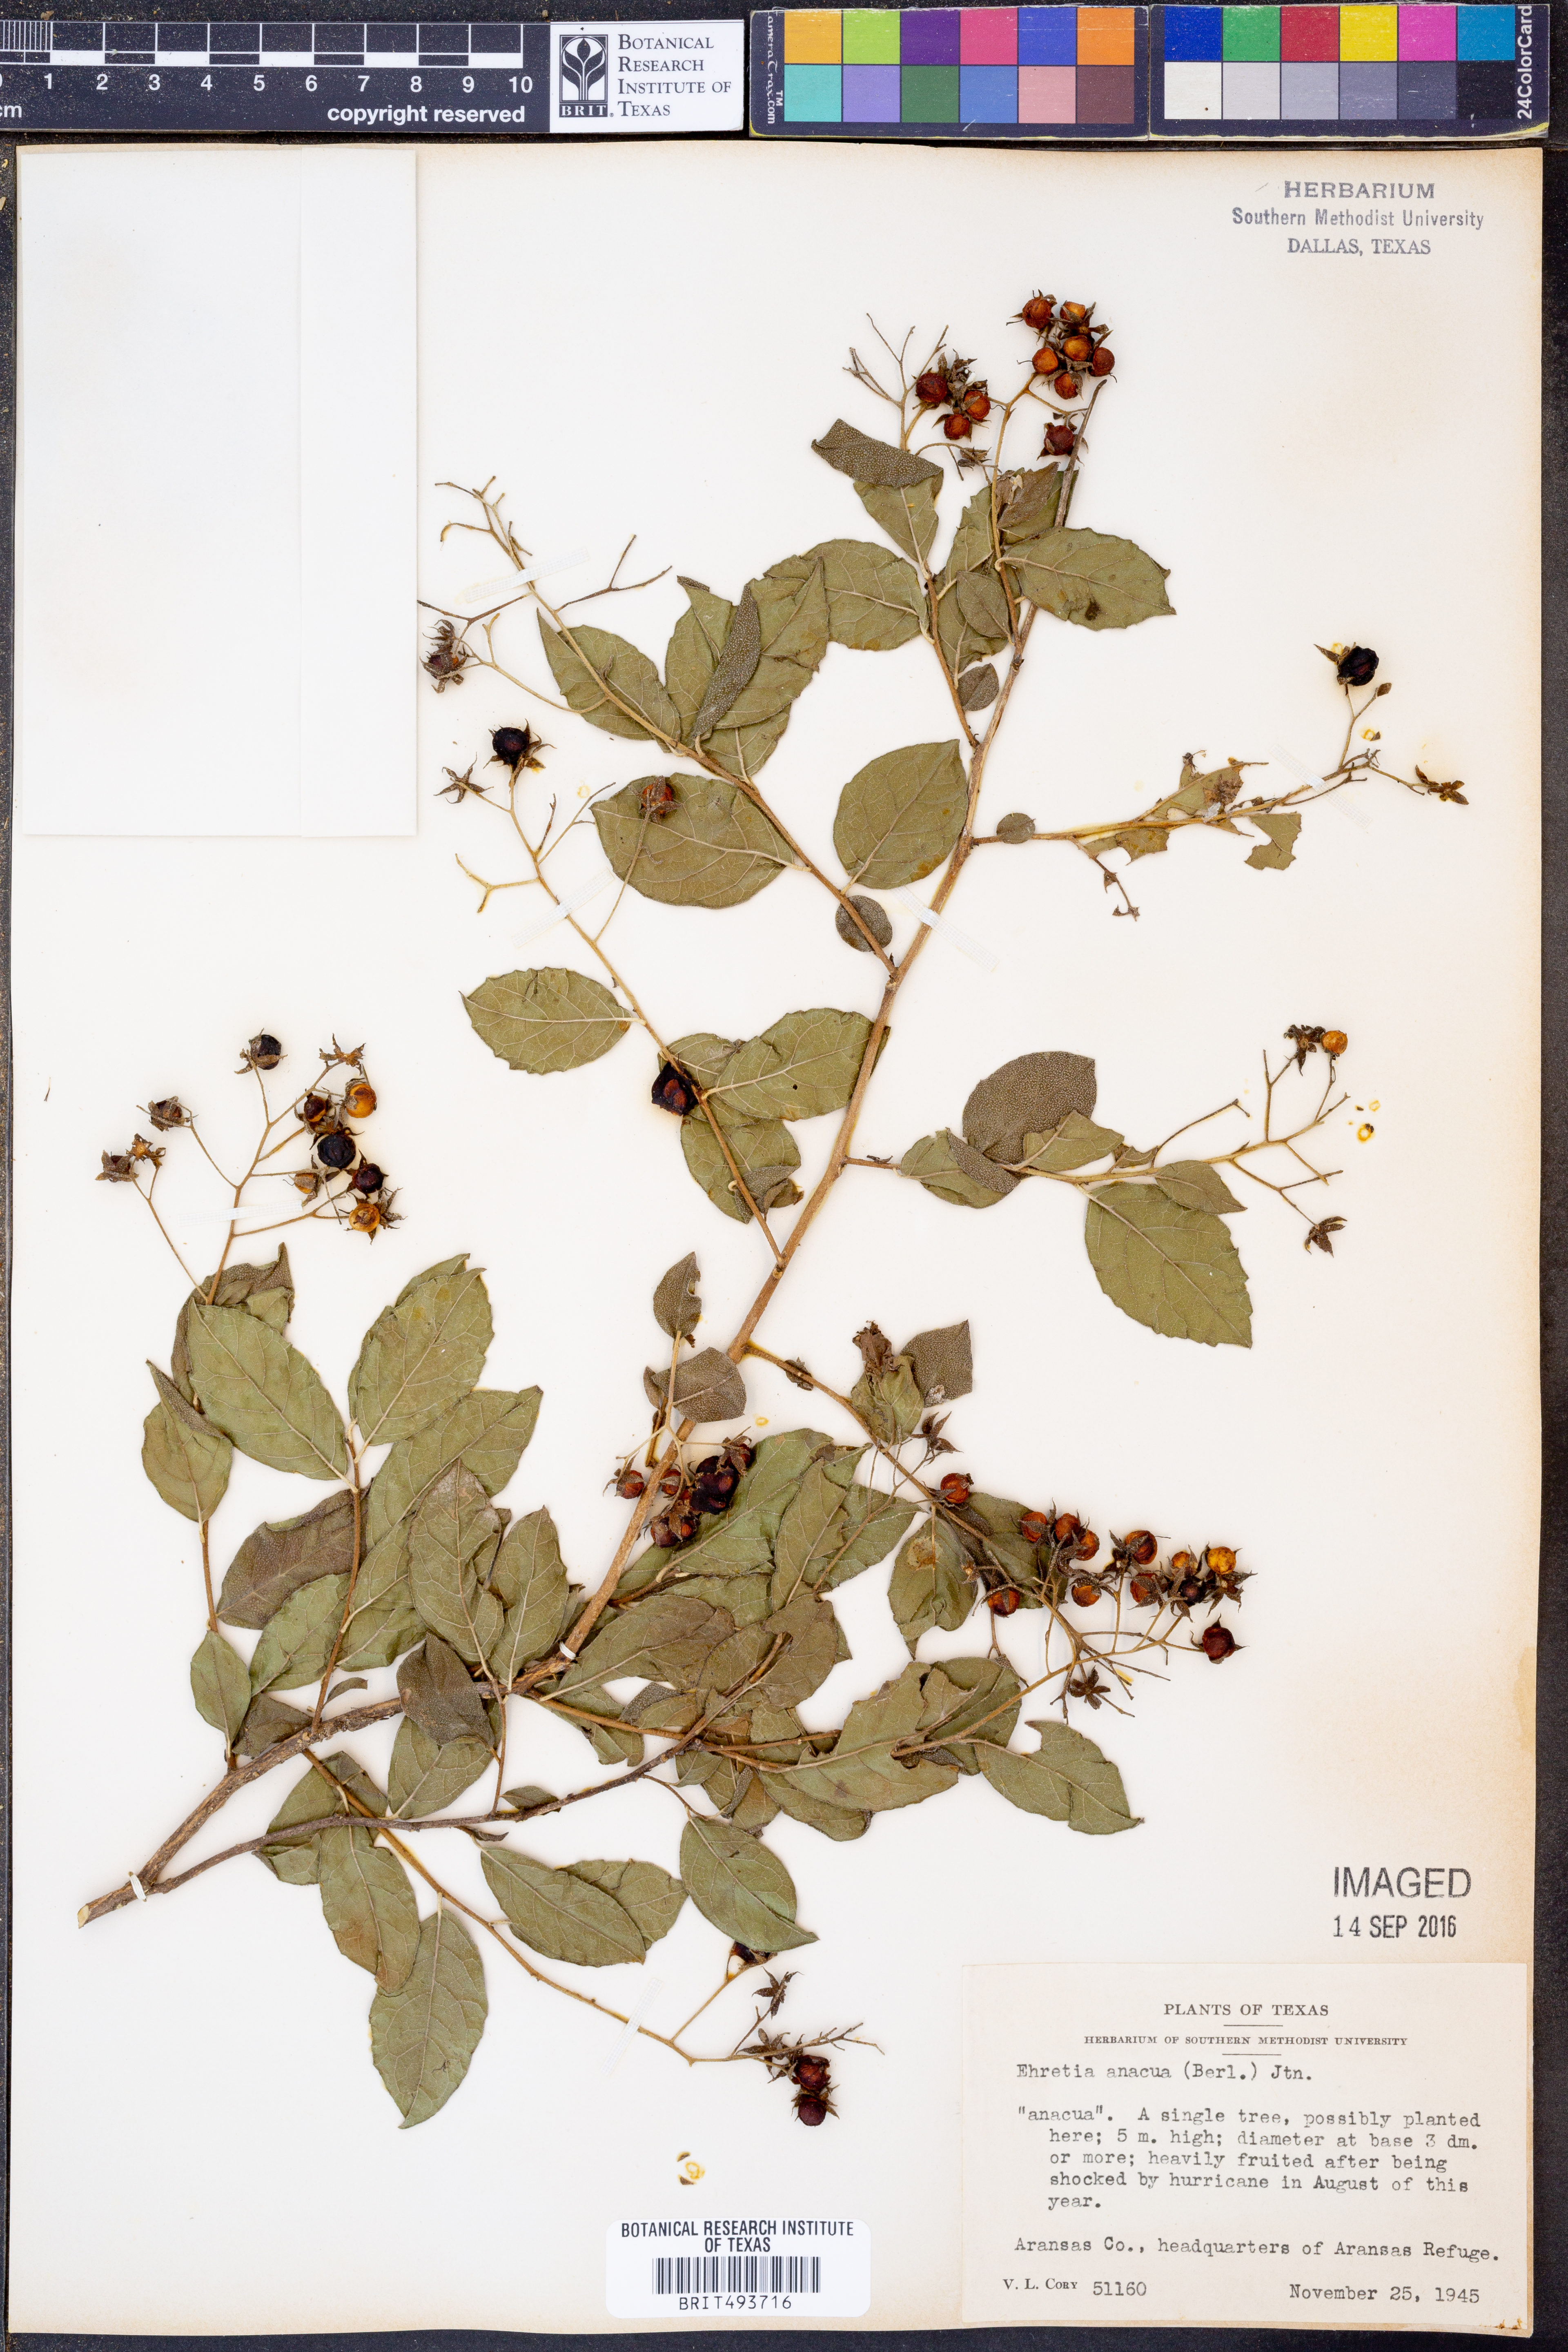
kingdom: Plantae
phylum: Tracheophyta
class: Magnoliopsida
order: Boraginales
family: Ehretiaceae
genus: Ehretia
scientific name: Ehretia anacua
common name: Sugarberry
